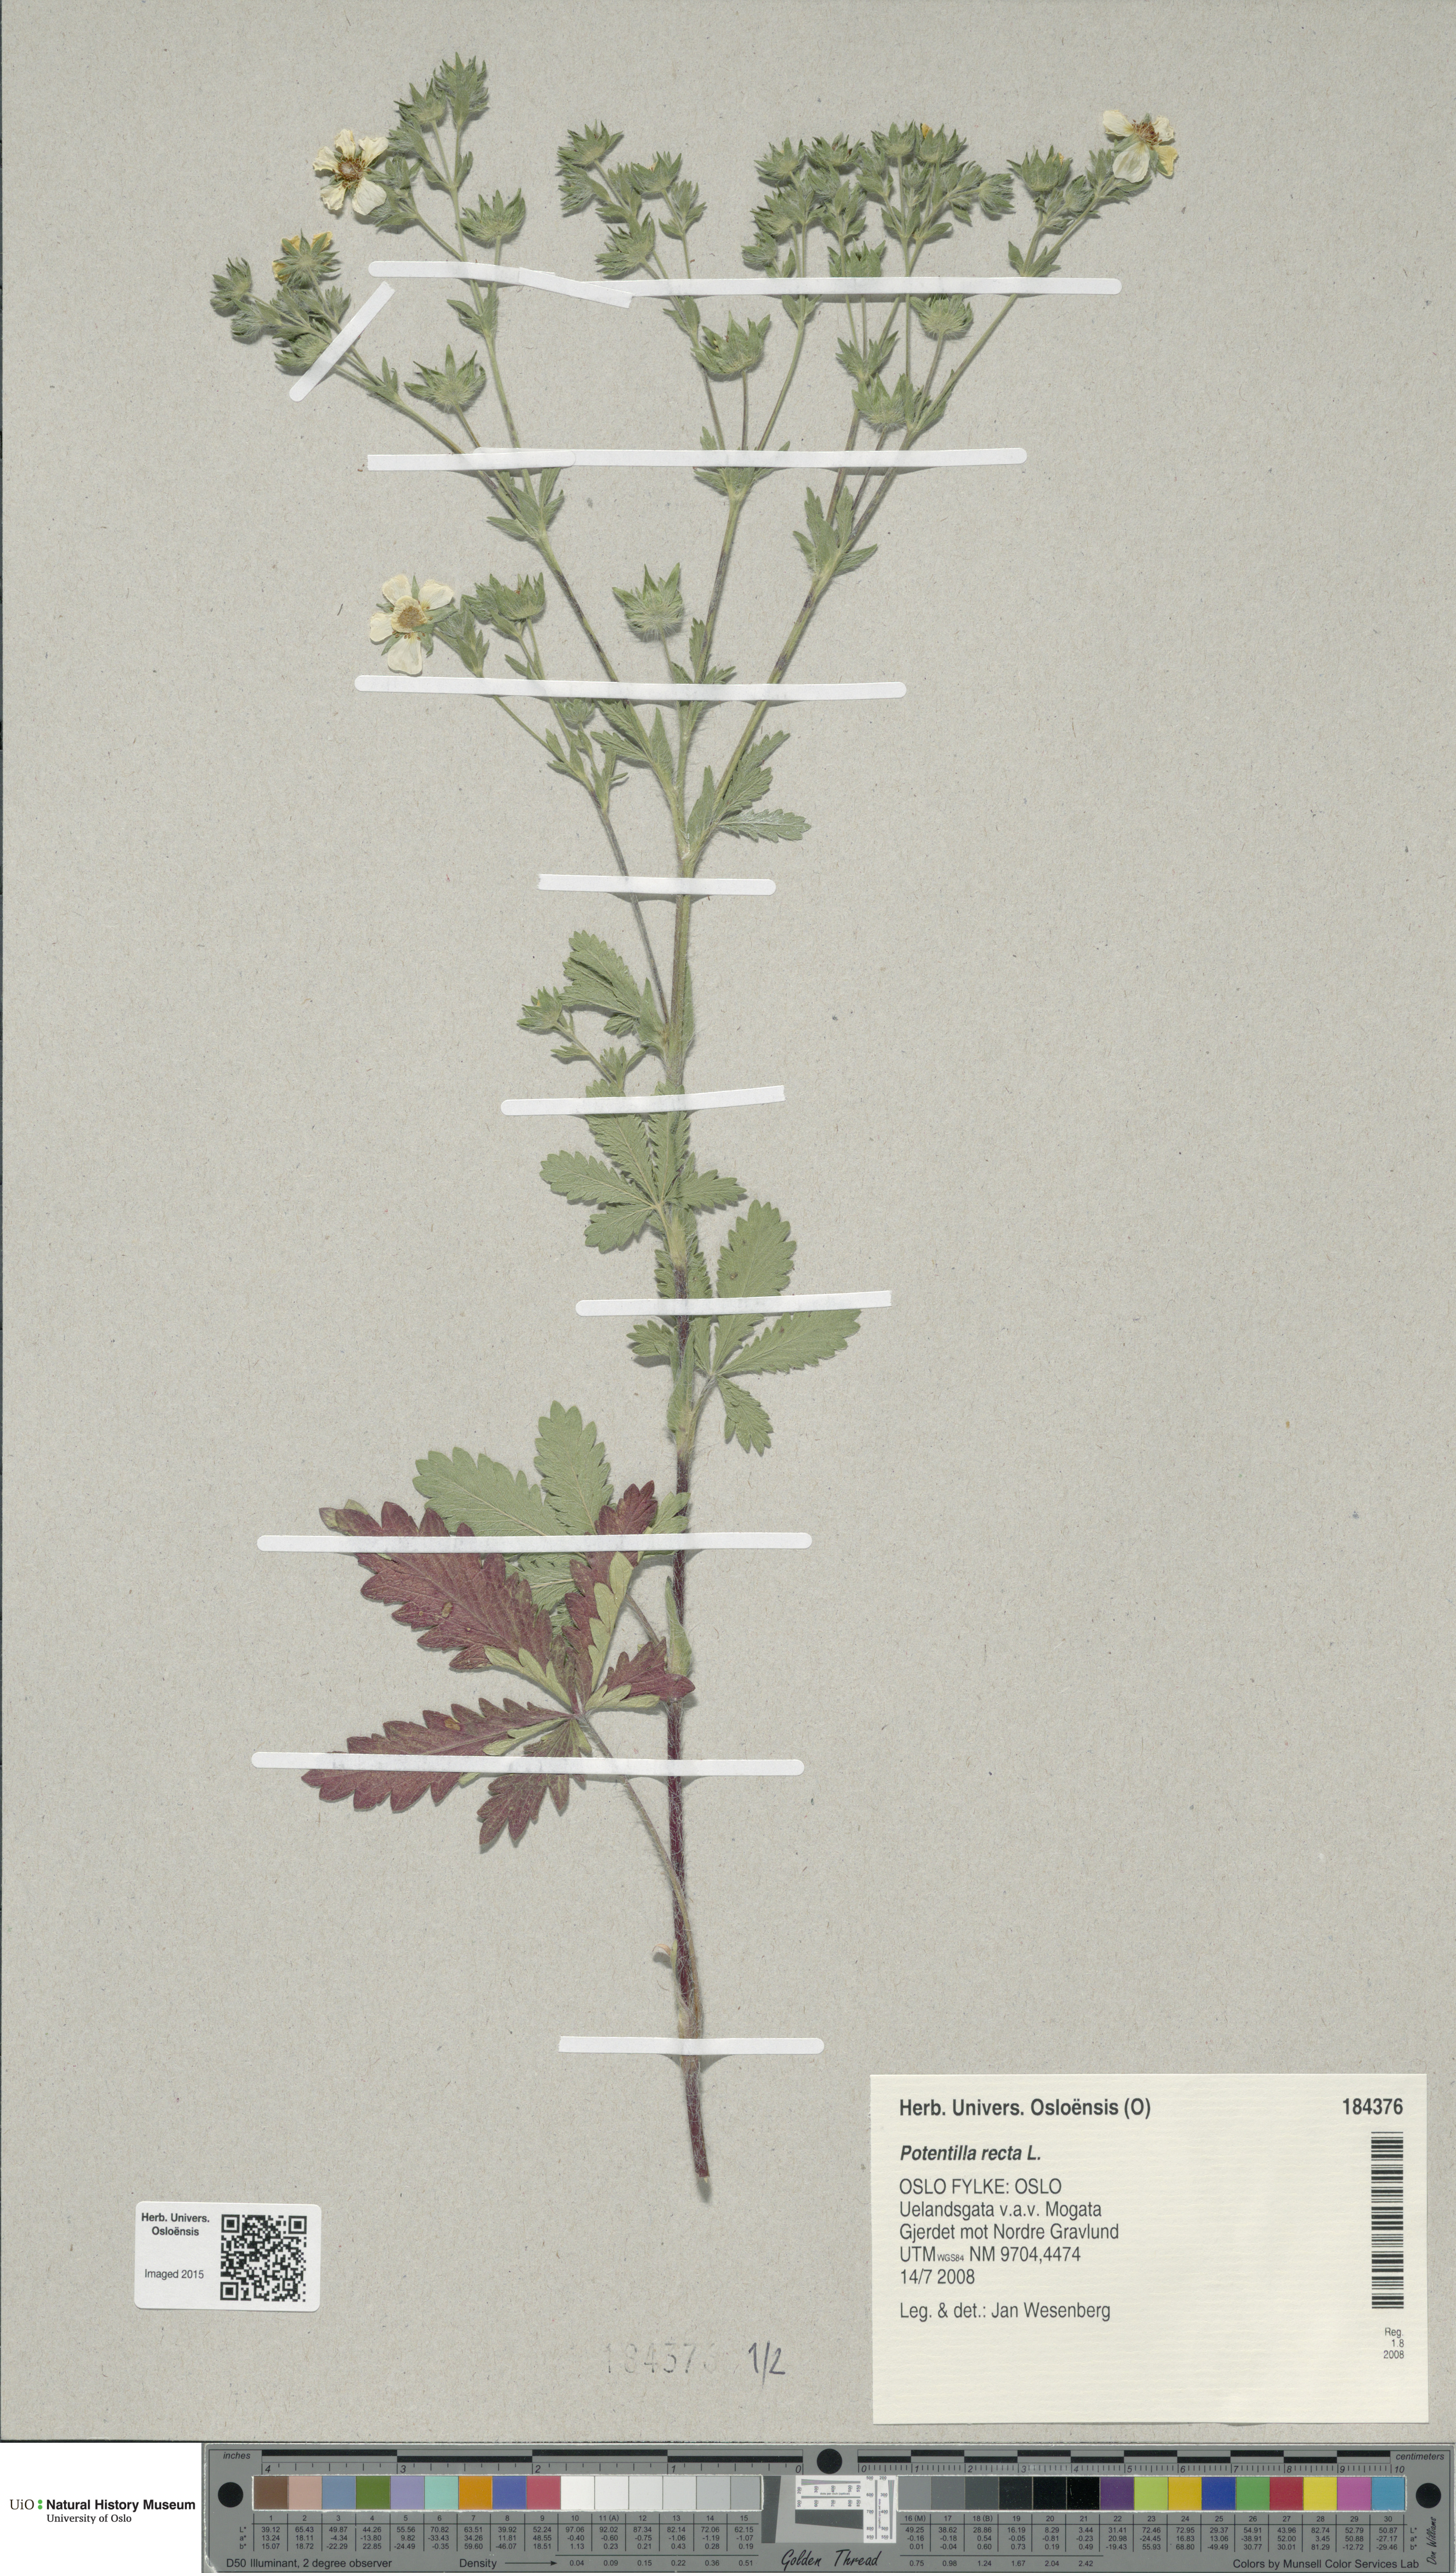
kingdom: Plantae
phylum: Tracheophyta
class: Magnoliopsida
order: Rosales
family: Rosaceae
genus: Potentilla
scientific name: Potentilla recta
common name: Sulphur cinquefoil
